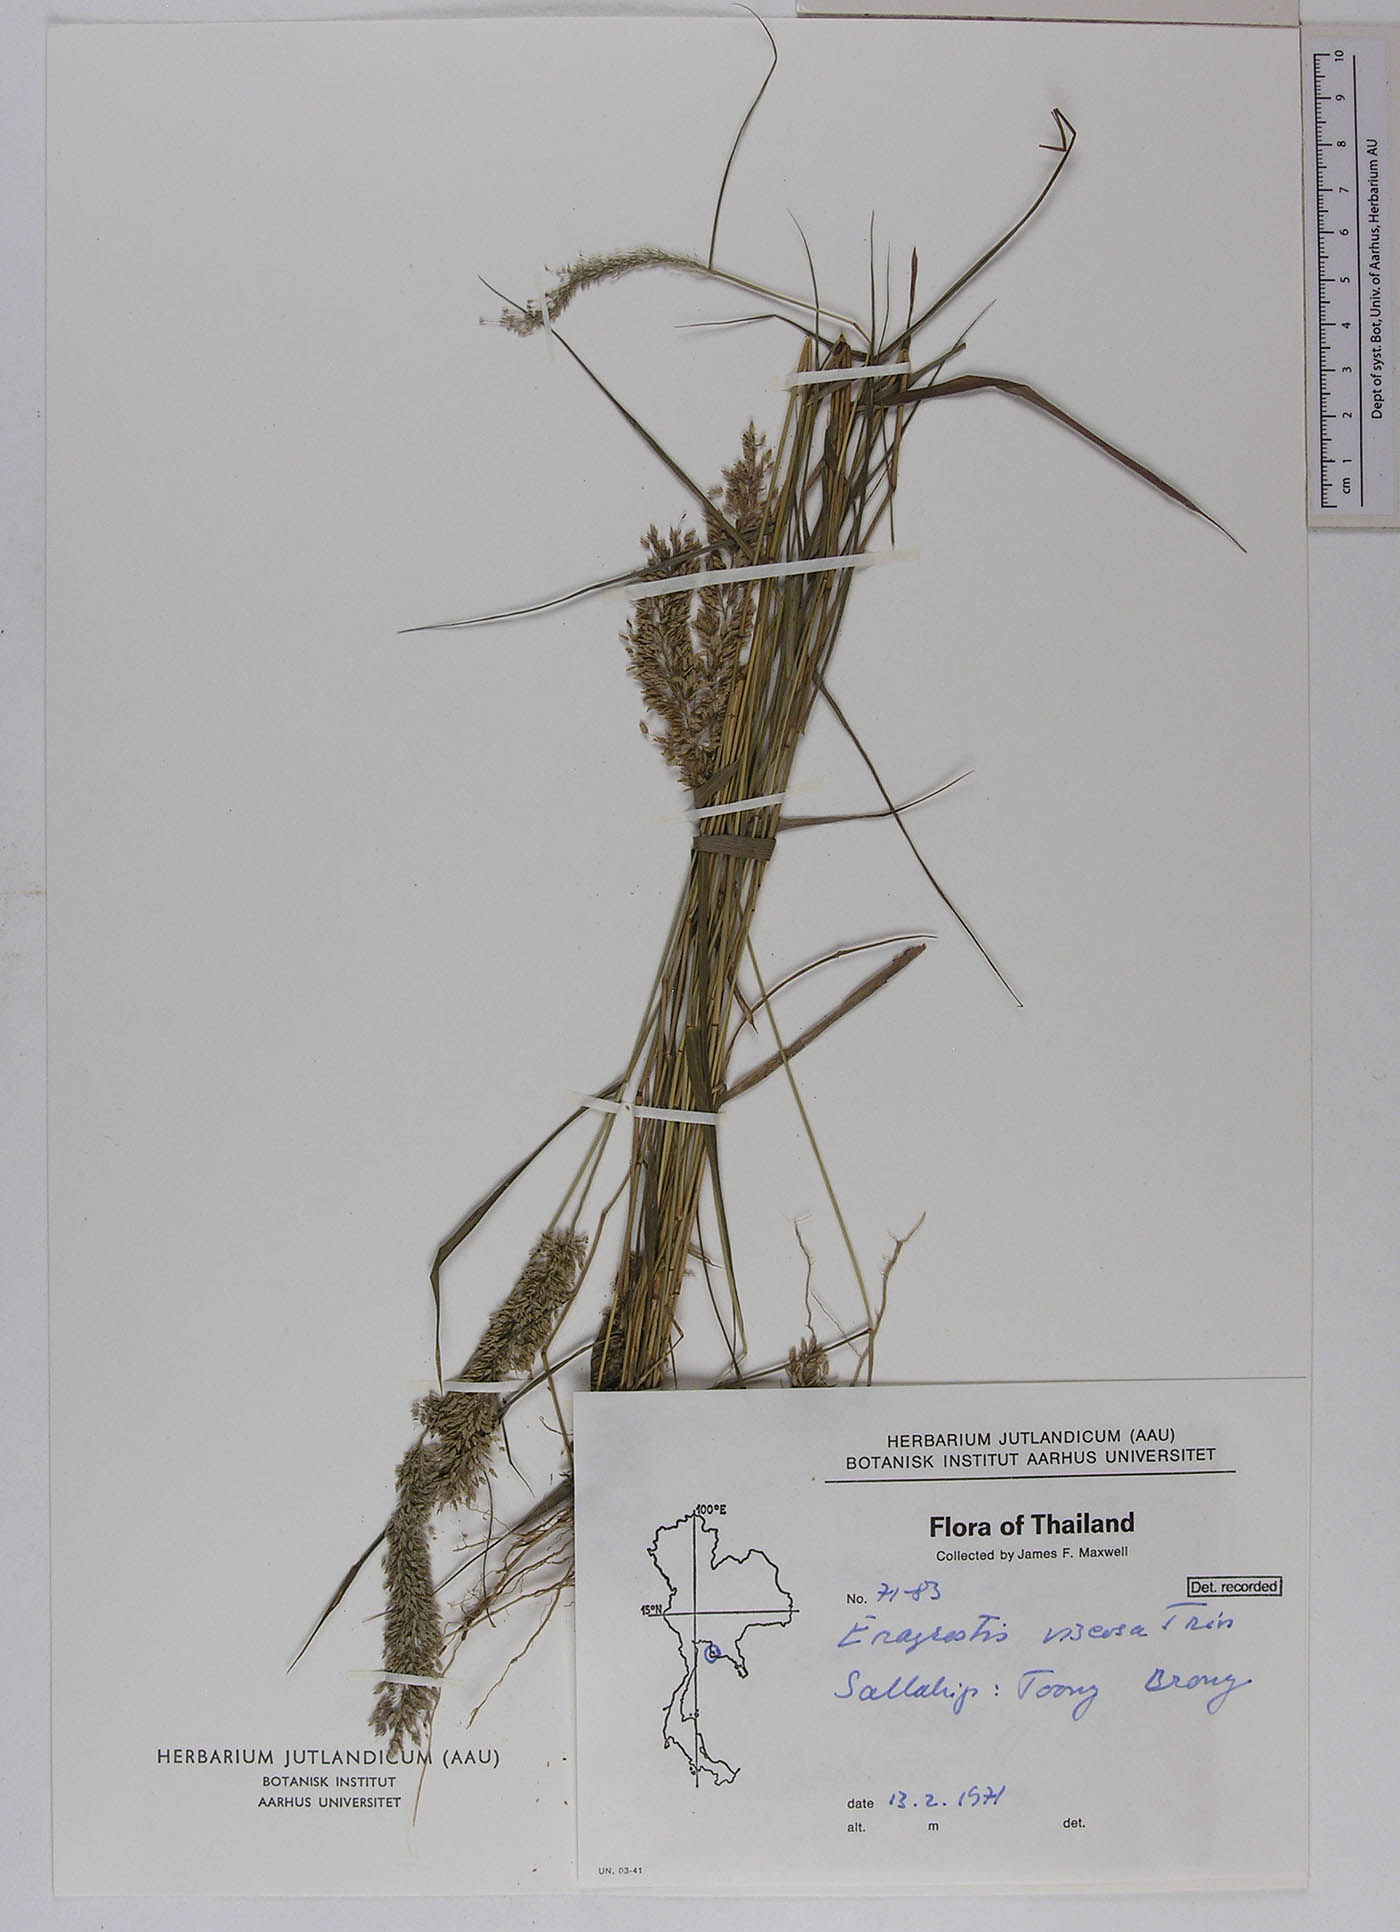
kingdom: Plantae
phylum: Tracheophyta
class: Liliopsida
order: Poales
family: Poaceae
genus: Eragrostis
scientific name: Eragrostis viscosa
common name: Sticky love grass
